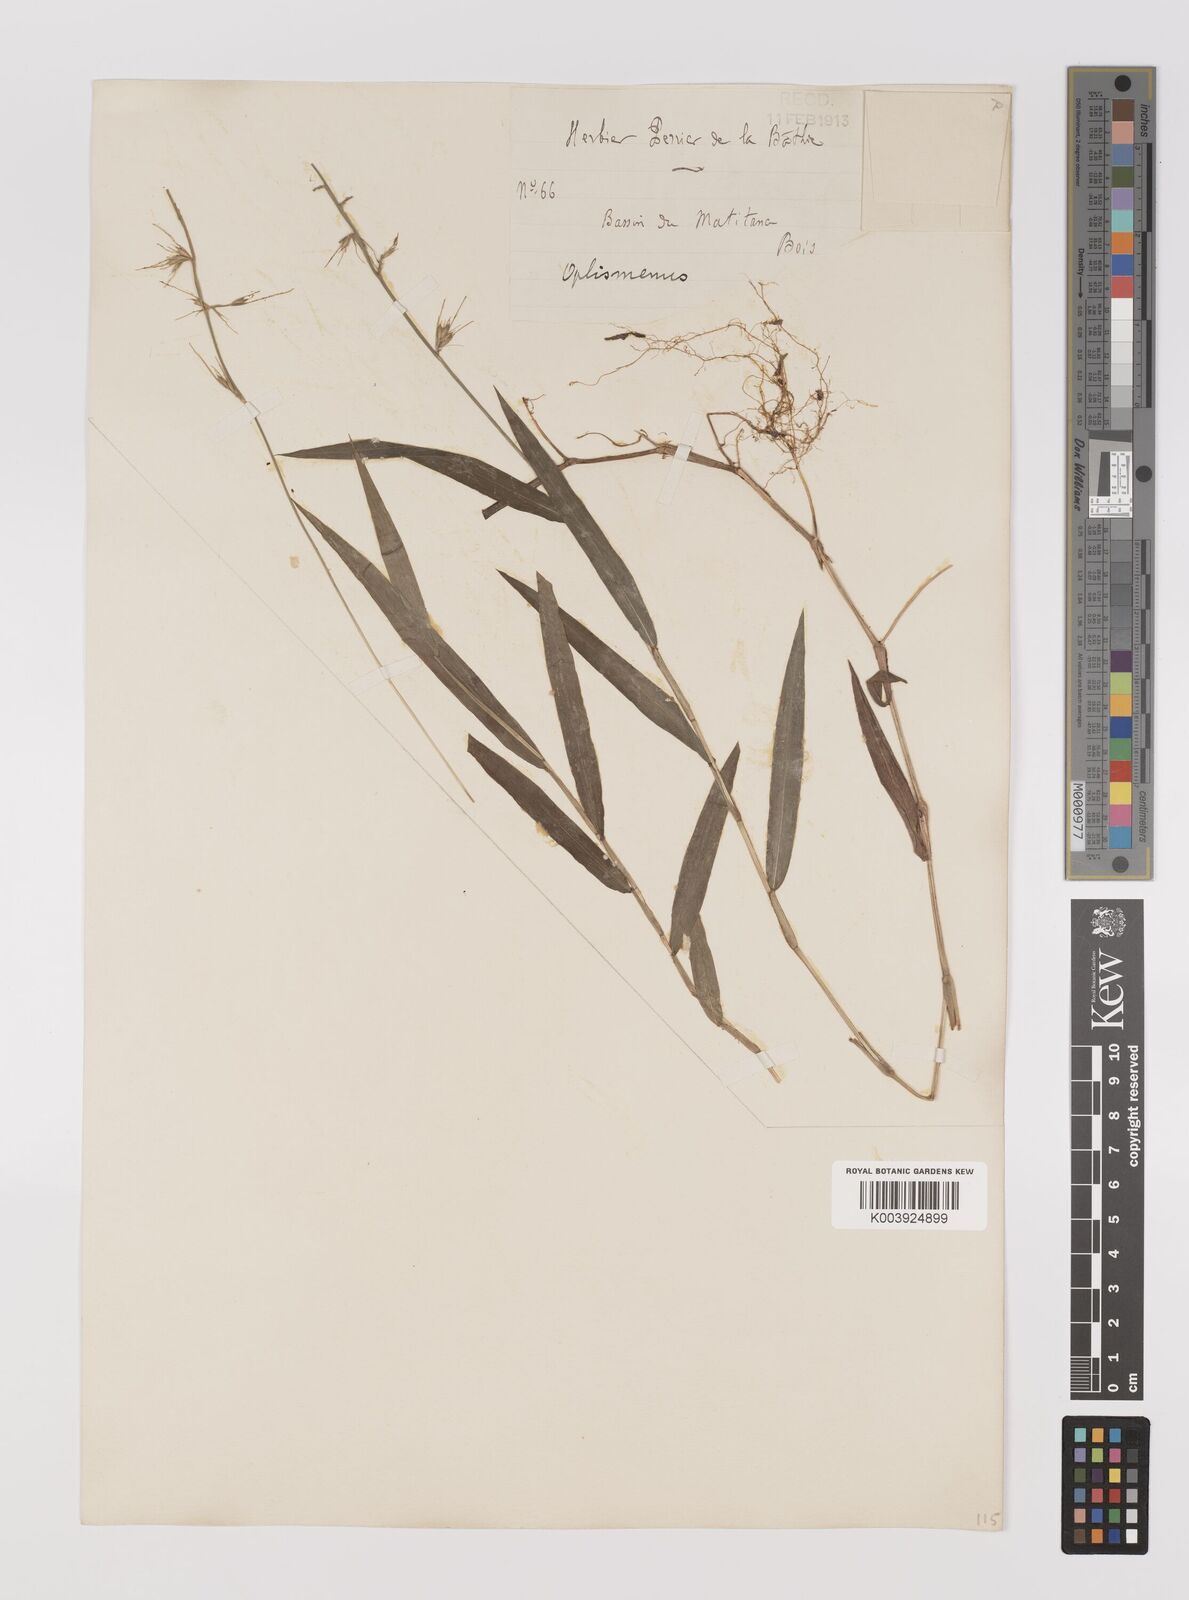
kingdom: Plantae
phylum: Tracheophyta
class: Liliopsida
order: Poales
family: Poaceae
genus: Oplismenus
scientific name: Oplismenus hirtellus
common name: Basketgrass
